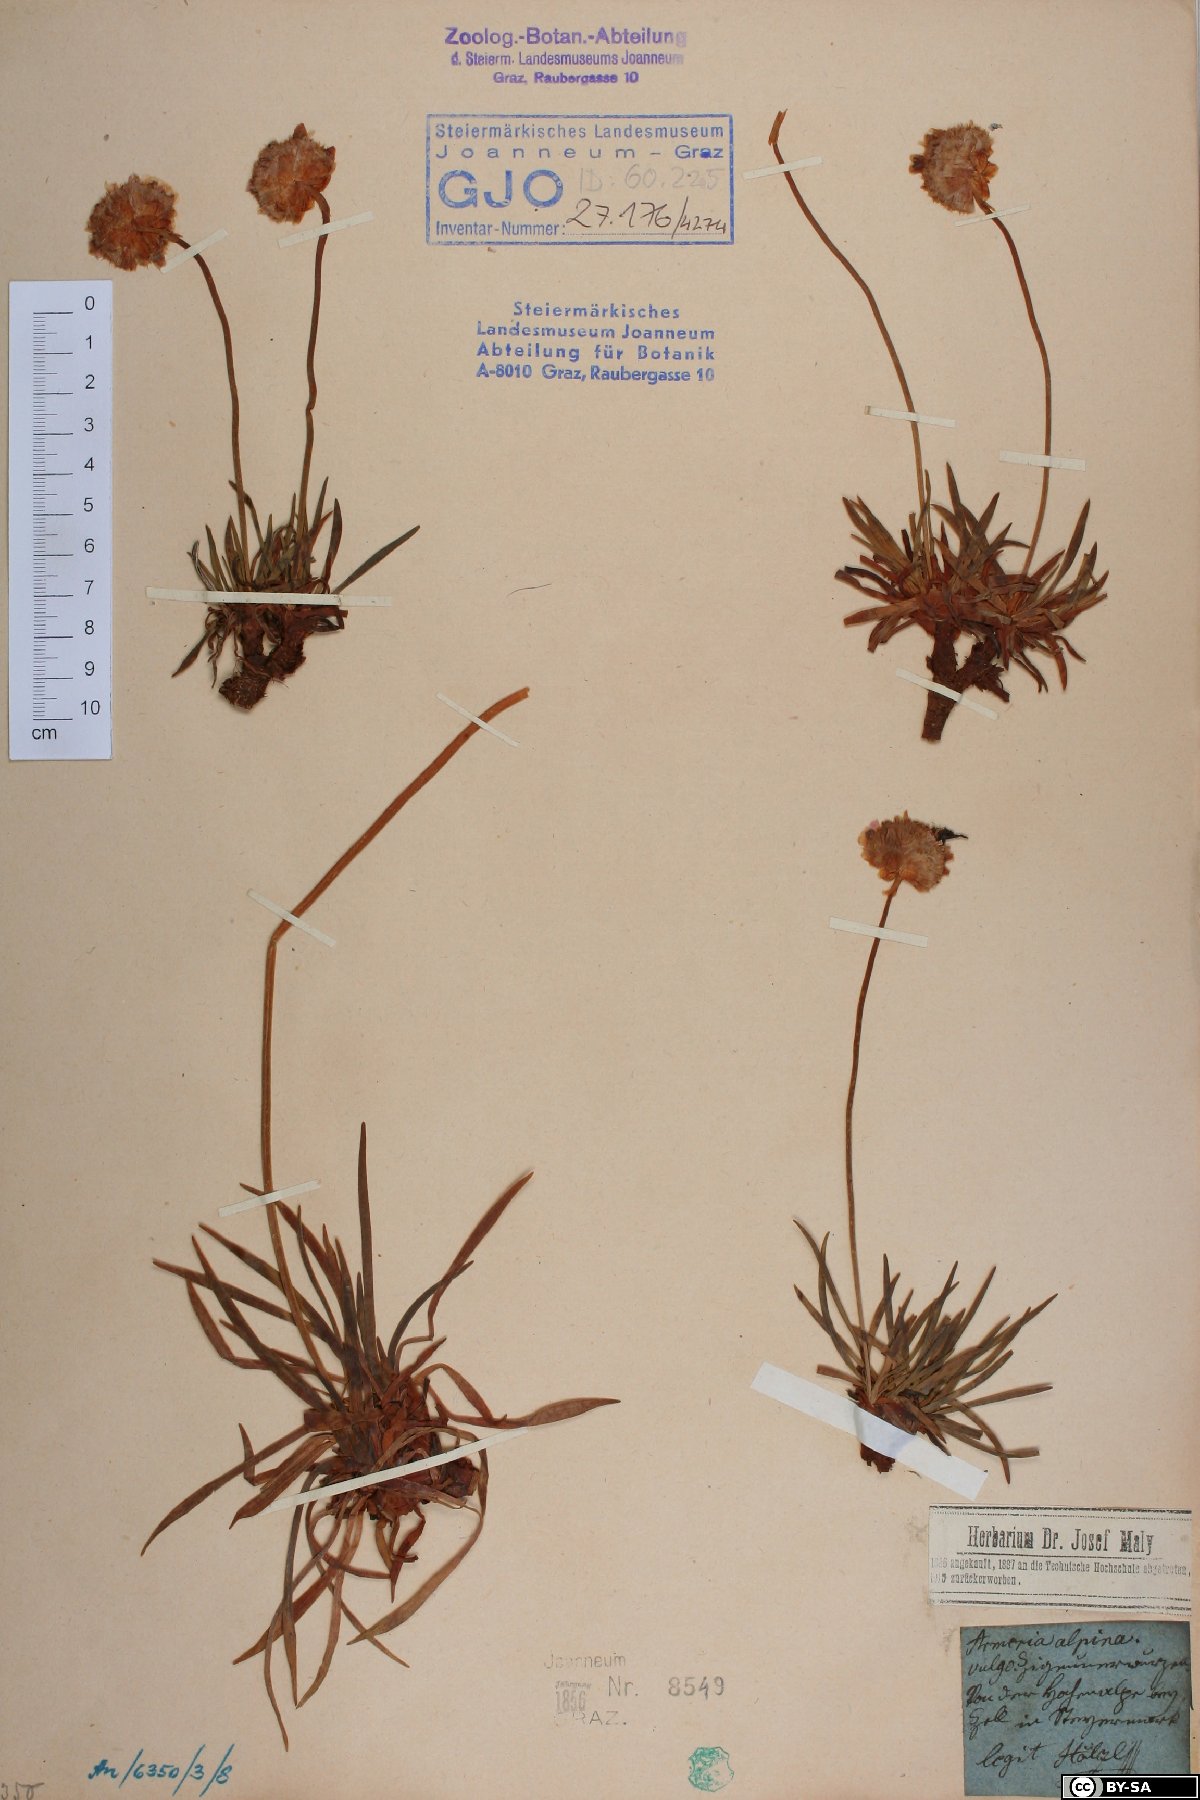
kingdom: Plantae
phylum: Tracheophyta
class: Magnoliopsida
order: Caryophyllales
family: Plumbaginaceae
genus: Armeria
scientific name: Armeria alpina
